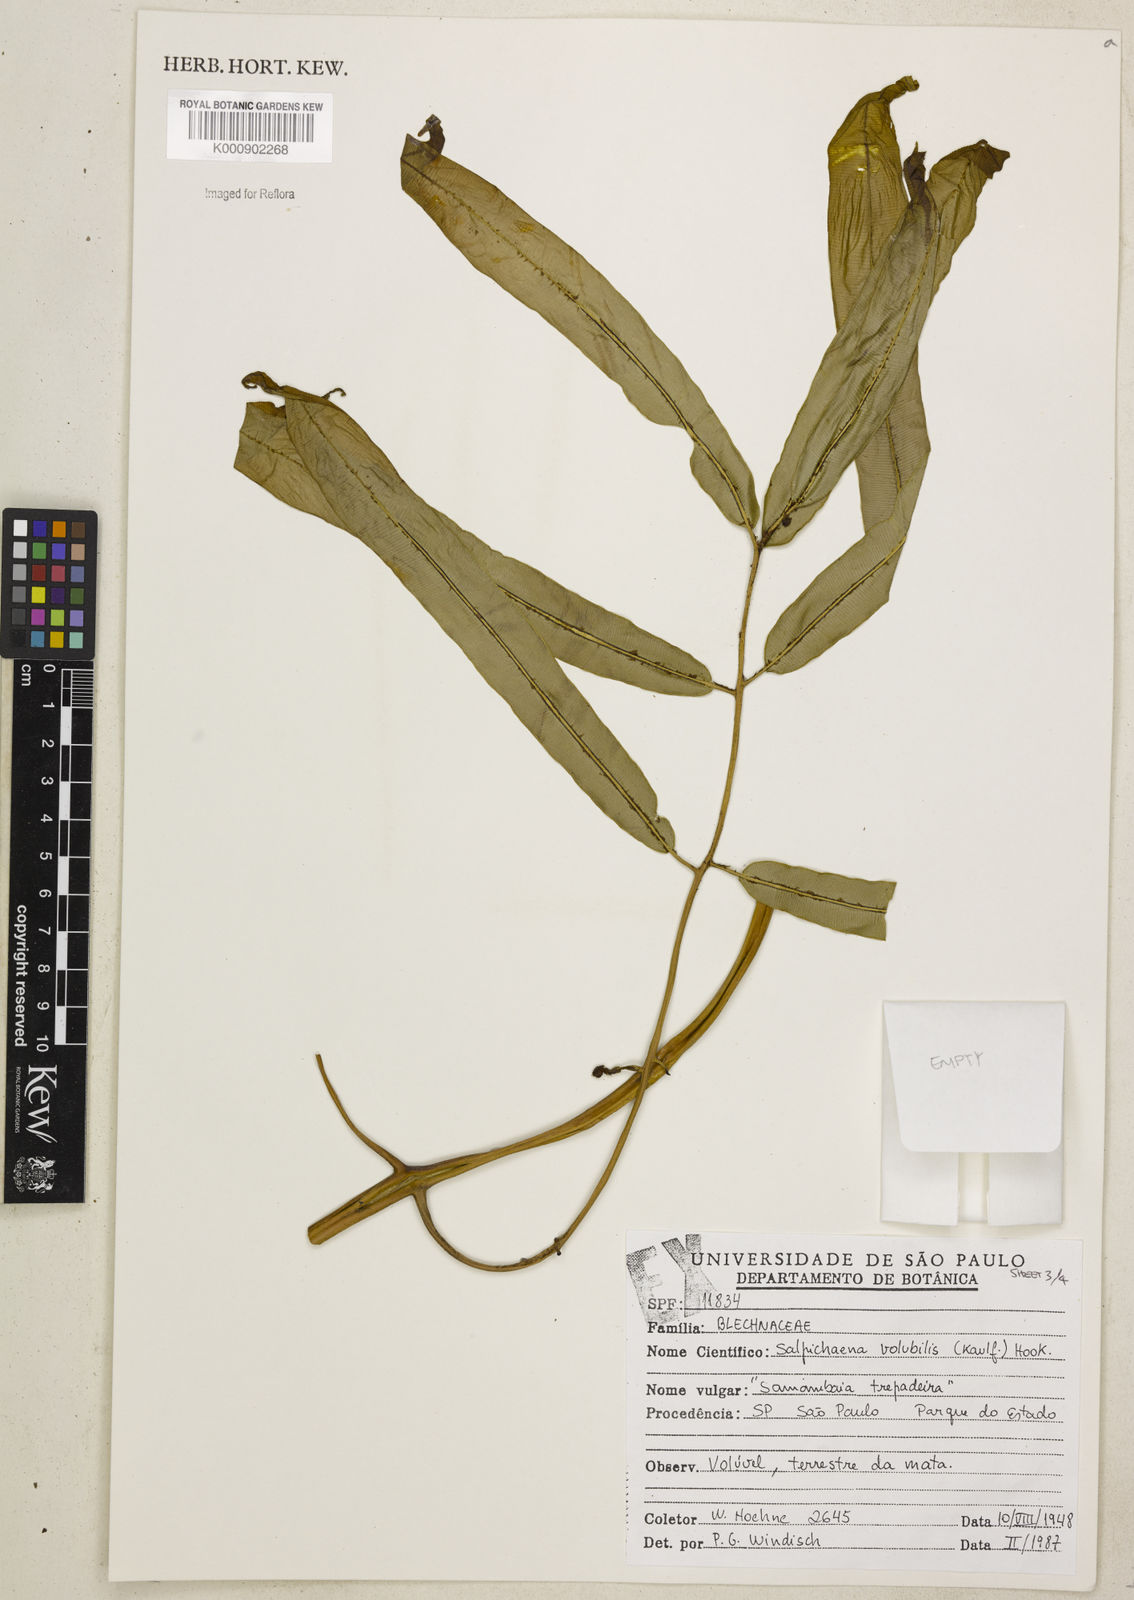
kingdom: Plantae
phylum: Tracheophyta
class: Polypodiopsida
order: Polypodiales
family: Blechnaceae
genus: Salpichlaena
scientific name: Salpichlaena volubilis
